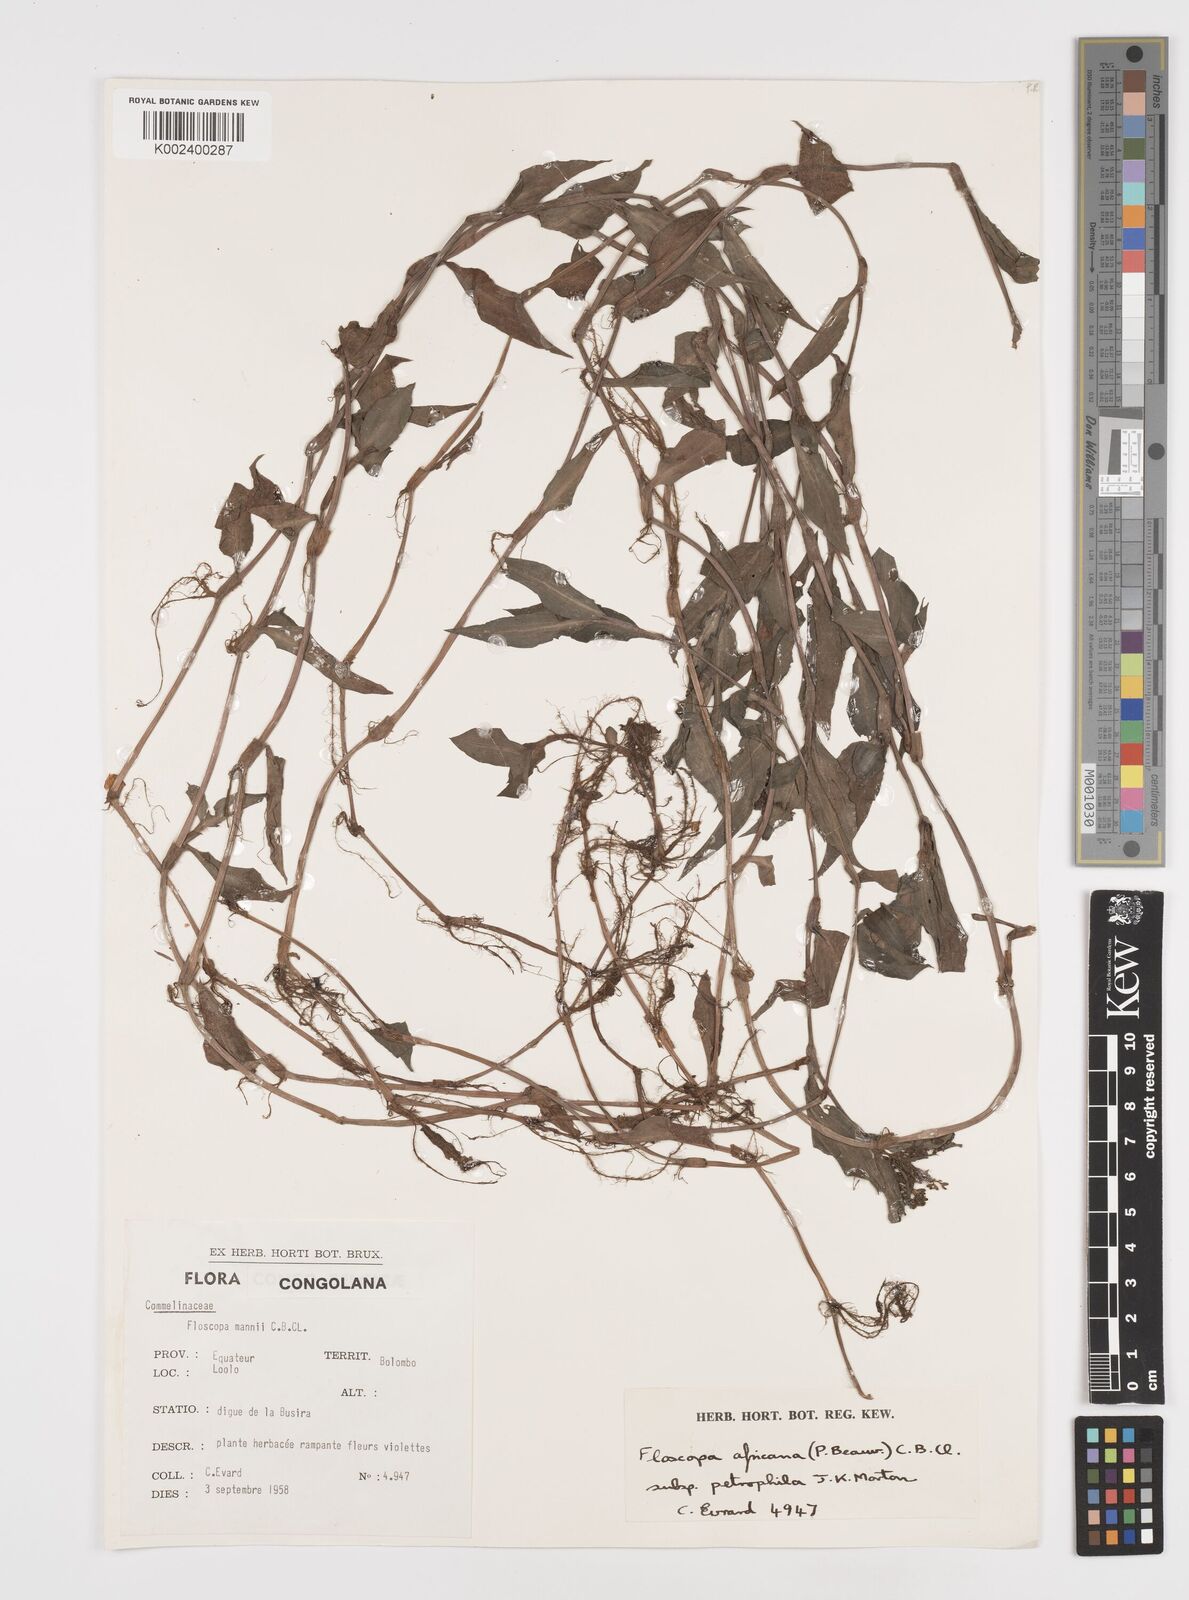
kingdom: Plantae
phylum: Tracheophyta
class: Liliopsida
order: Commelinales
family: Commelinaceae
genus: Floscopa
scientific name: Floscopa africana
